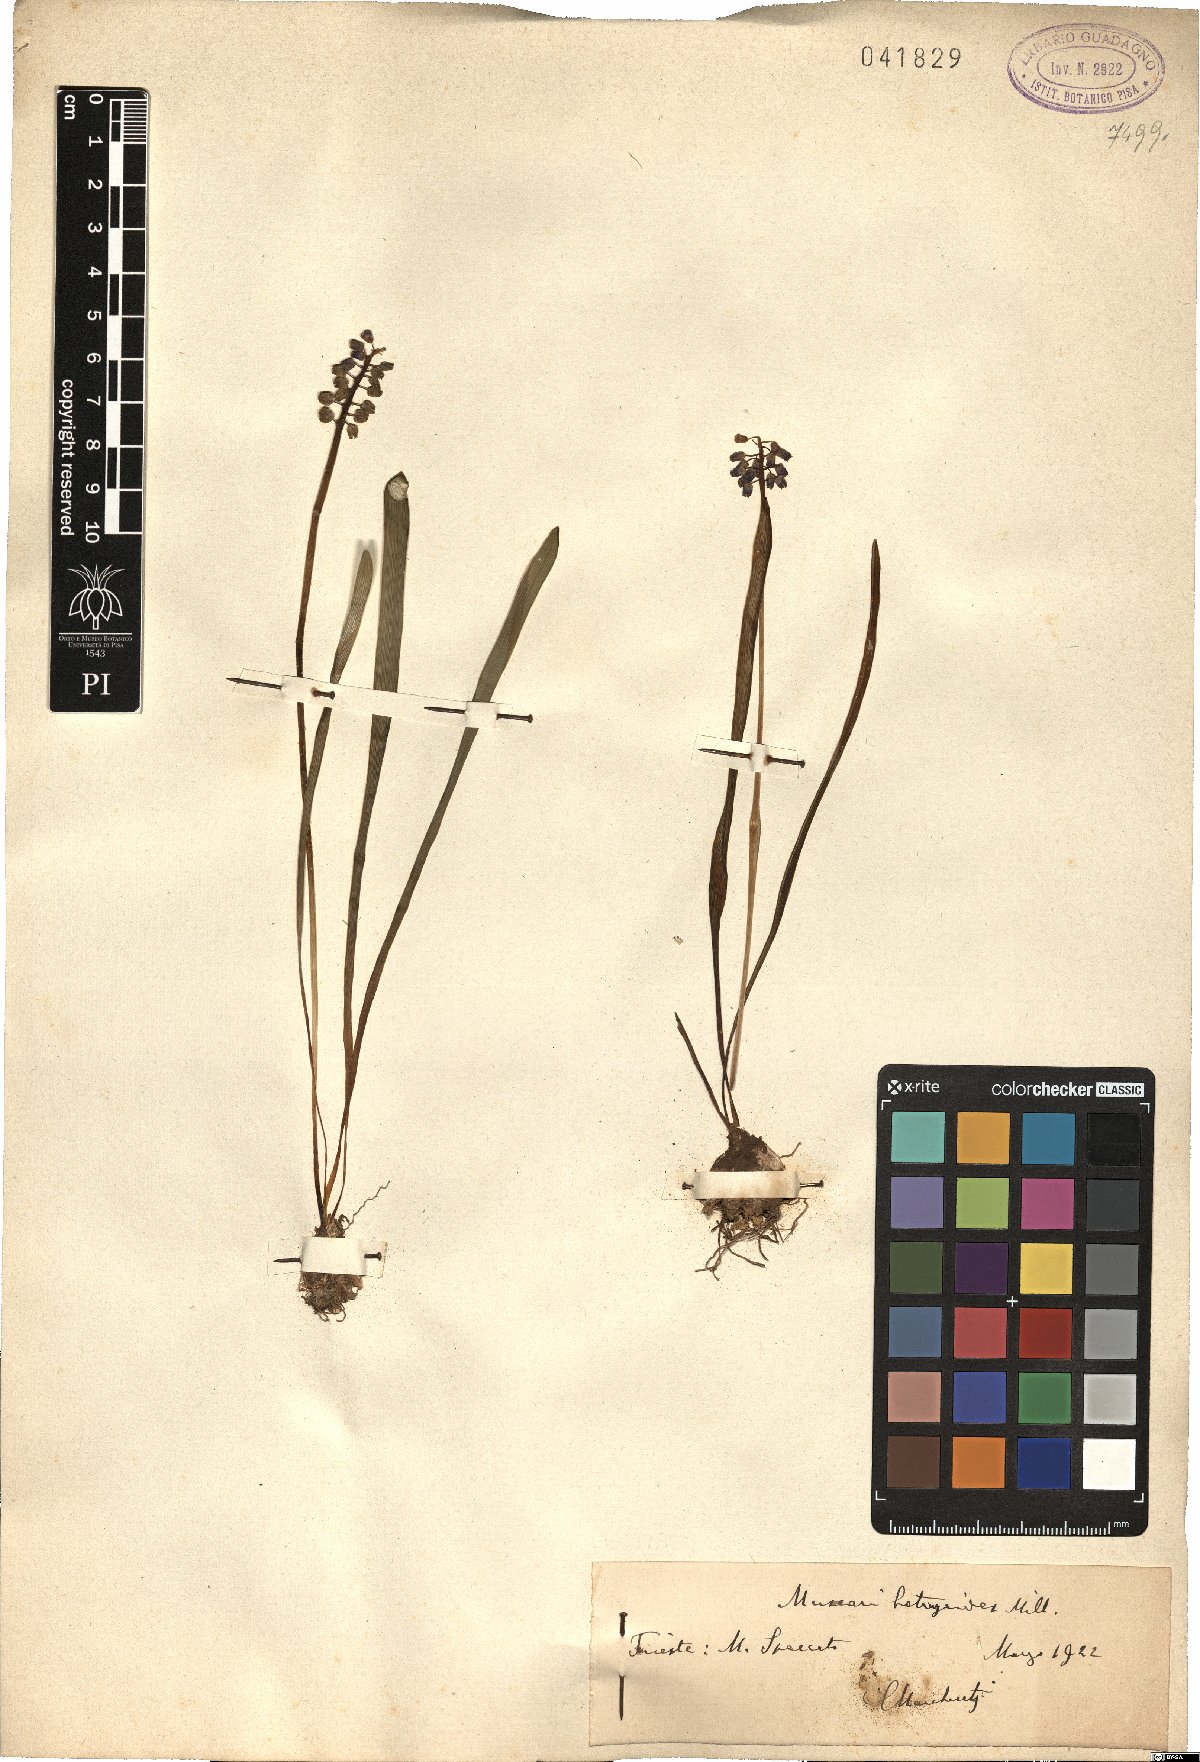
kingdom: Plantae
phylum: Tracheophyta
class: Liliopsida
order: Asparagales
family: Asparagaceae
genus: Muscari
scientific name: Muscari
